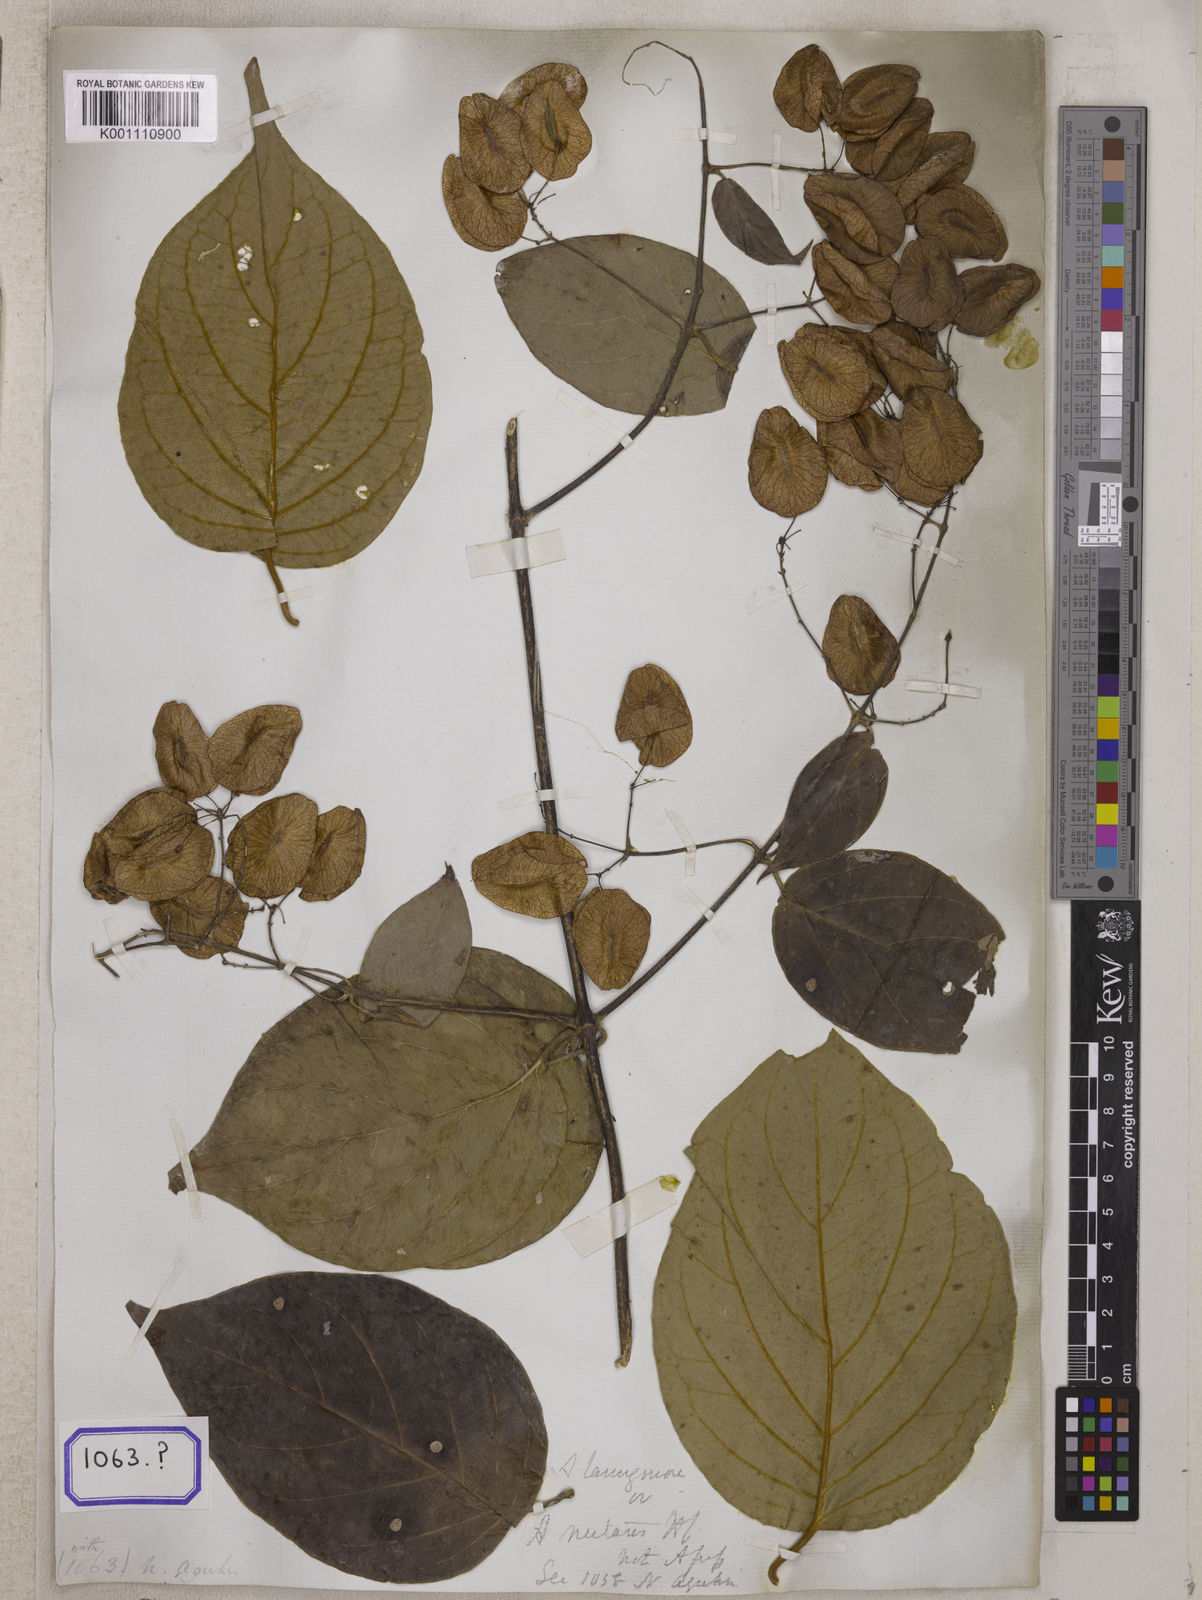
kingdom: Plantae
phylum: Tracheophyta
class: Magnoliopsida
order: Malpighiales
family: Malpighiaceae
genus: Hiptage
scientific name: Hiptage benghalensis
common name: Hiptage
